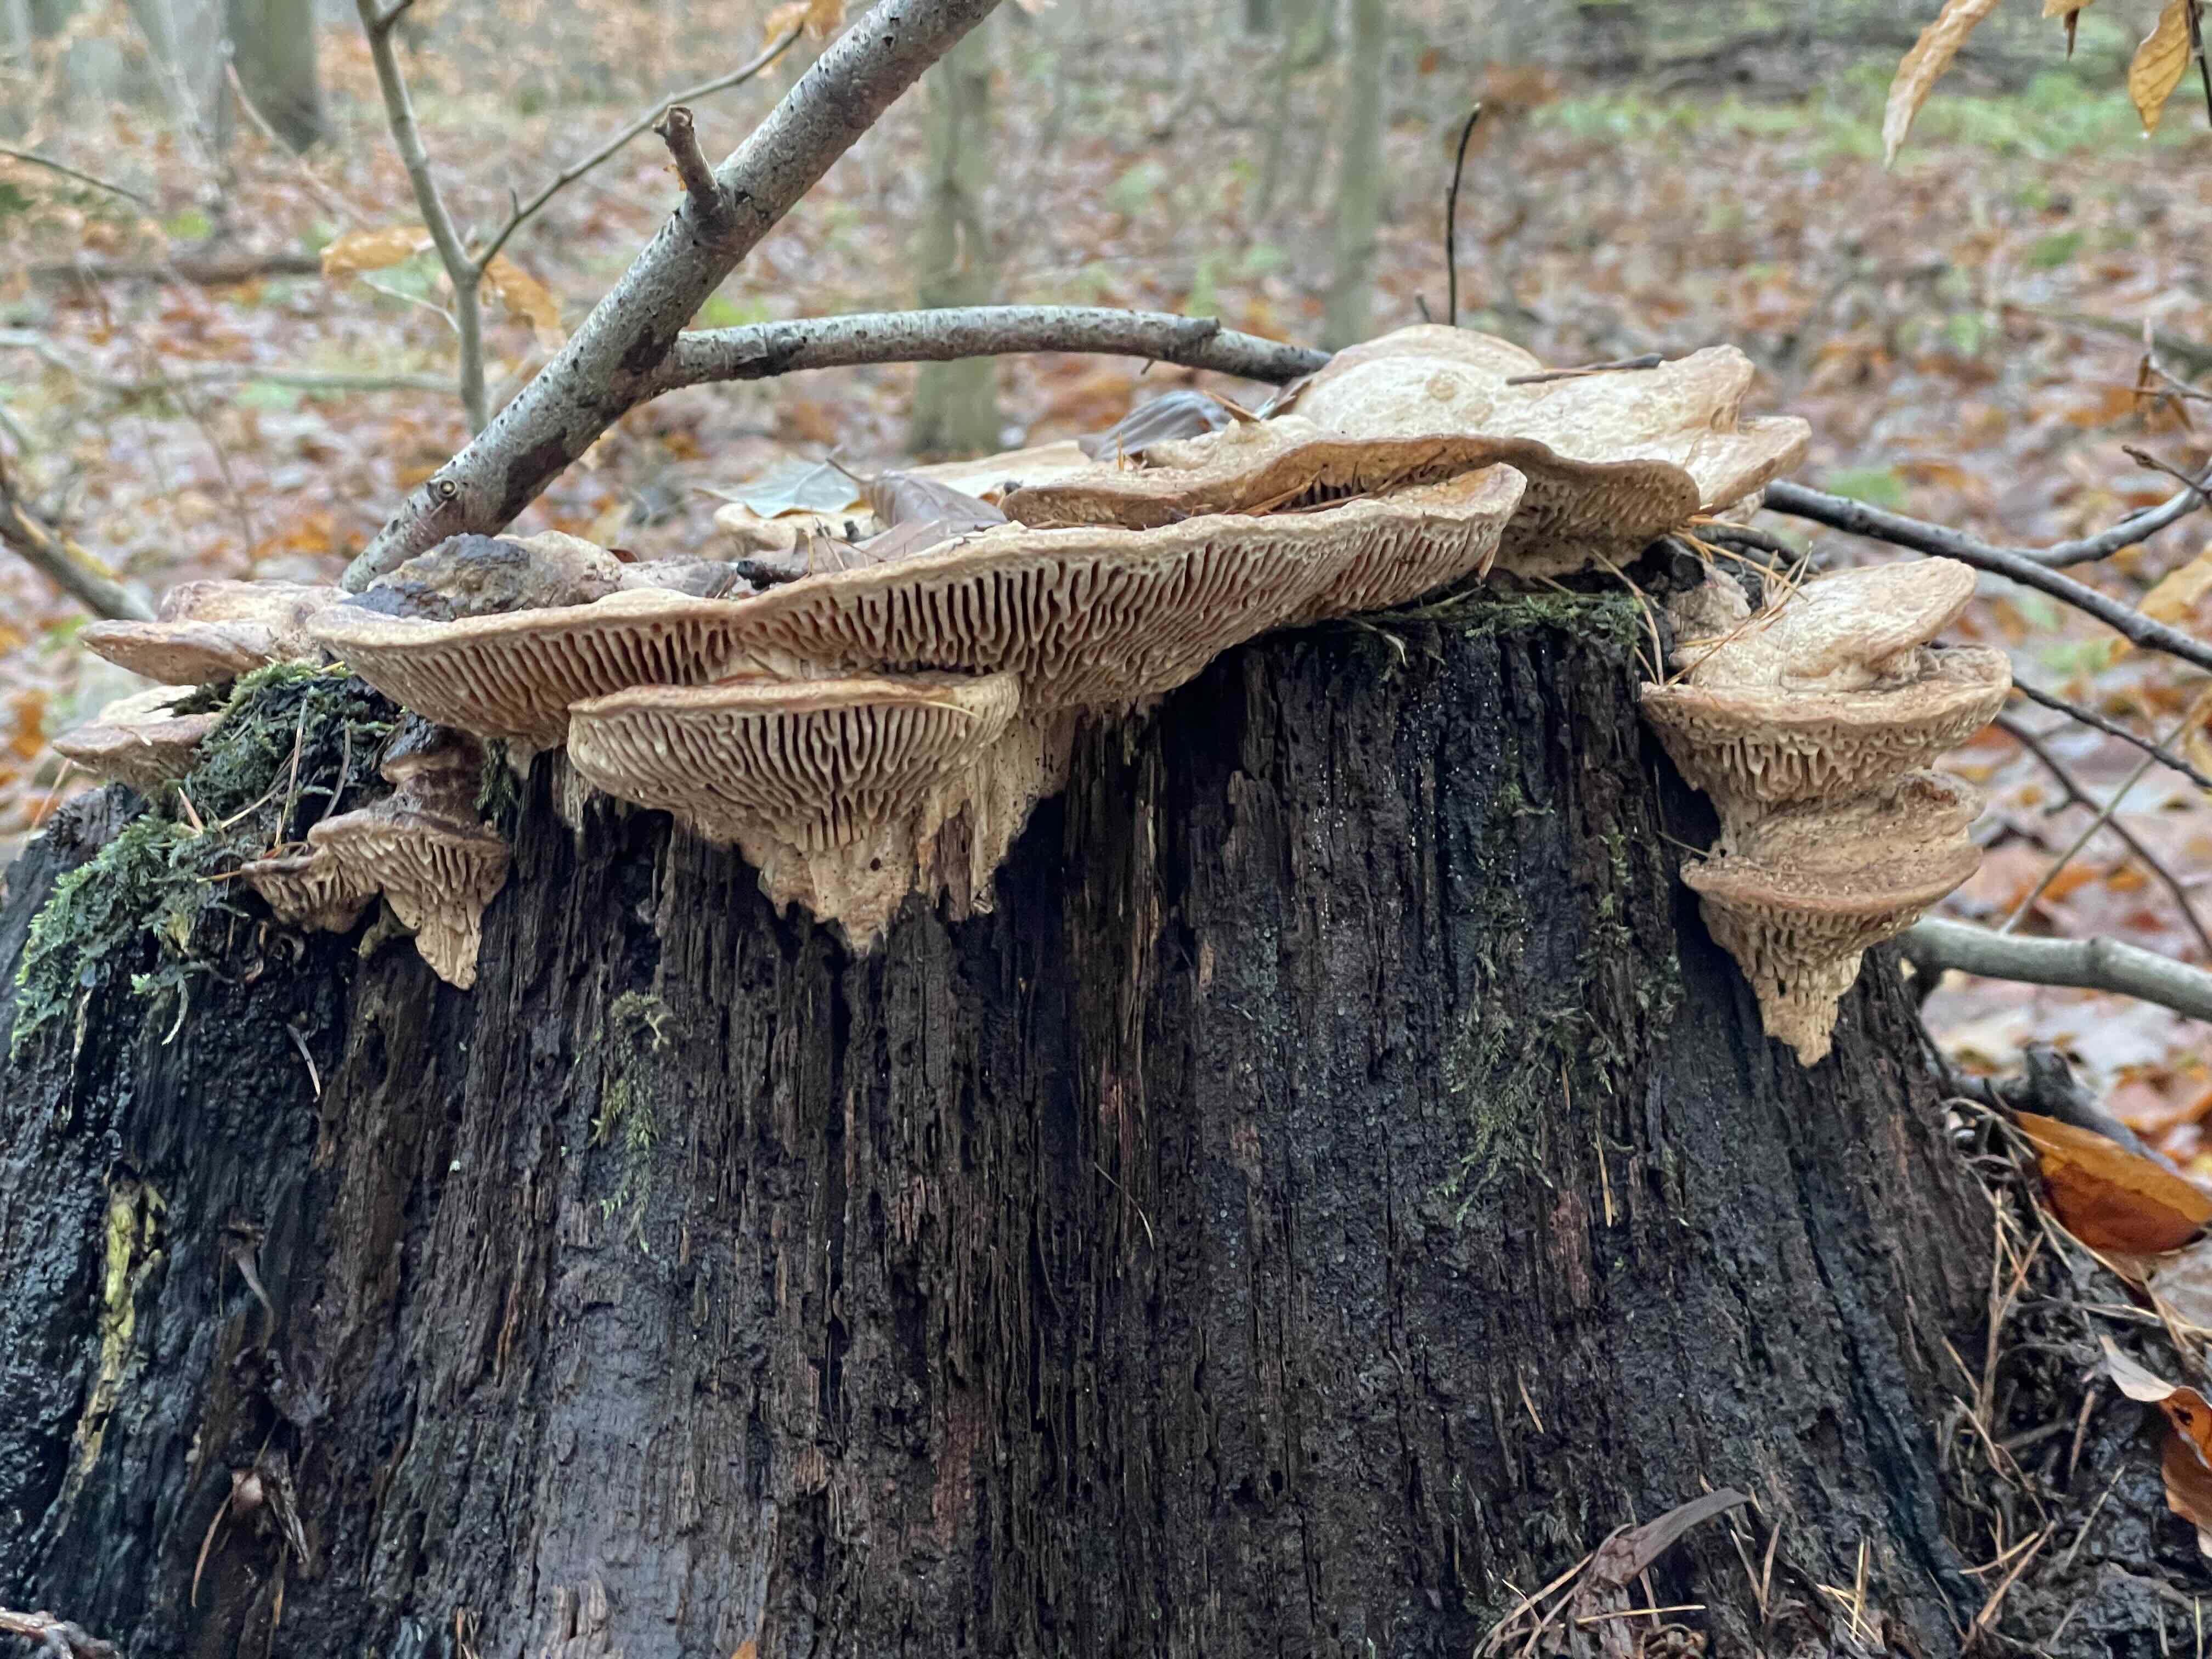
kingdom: Fungi
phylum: Basidiomycota
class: Agaricomycetes
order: Polyporales
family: Fomitopsidaceae
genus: Daedalea
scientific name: Daedalea quercina
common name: ege-labyrintsvamp
